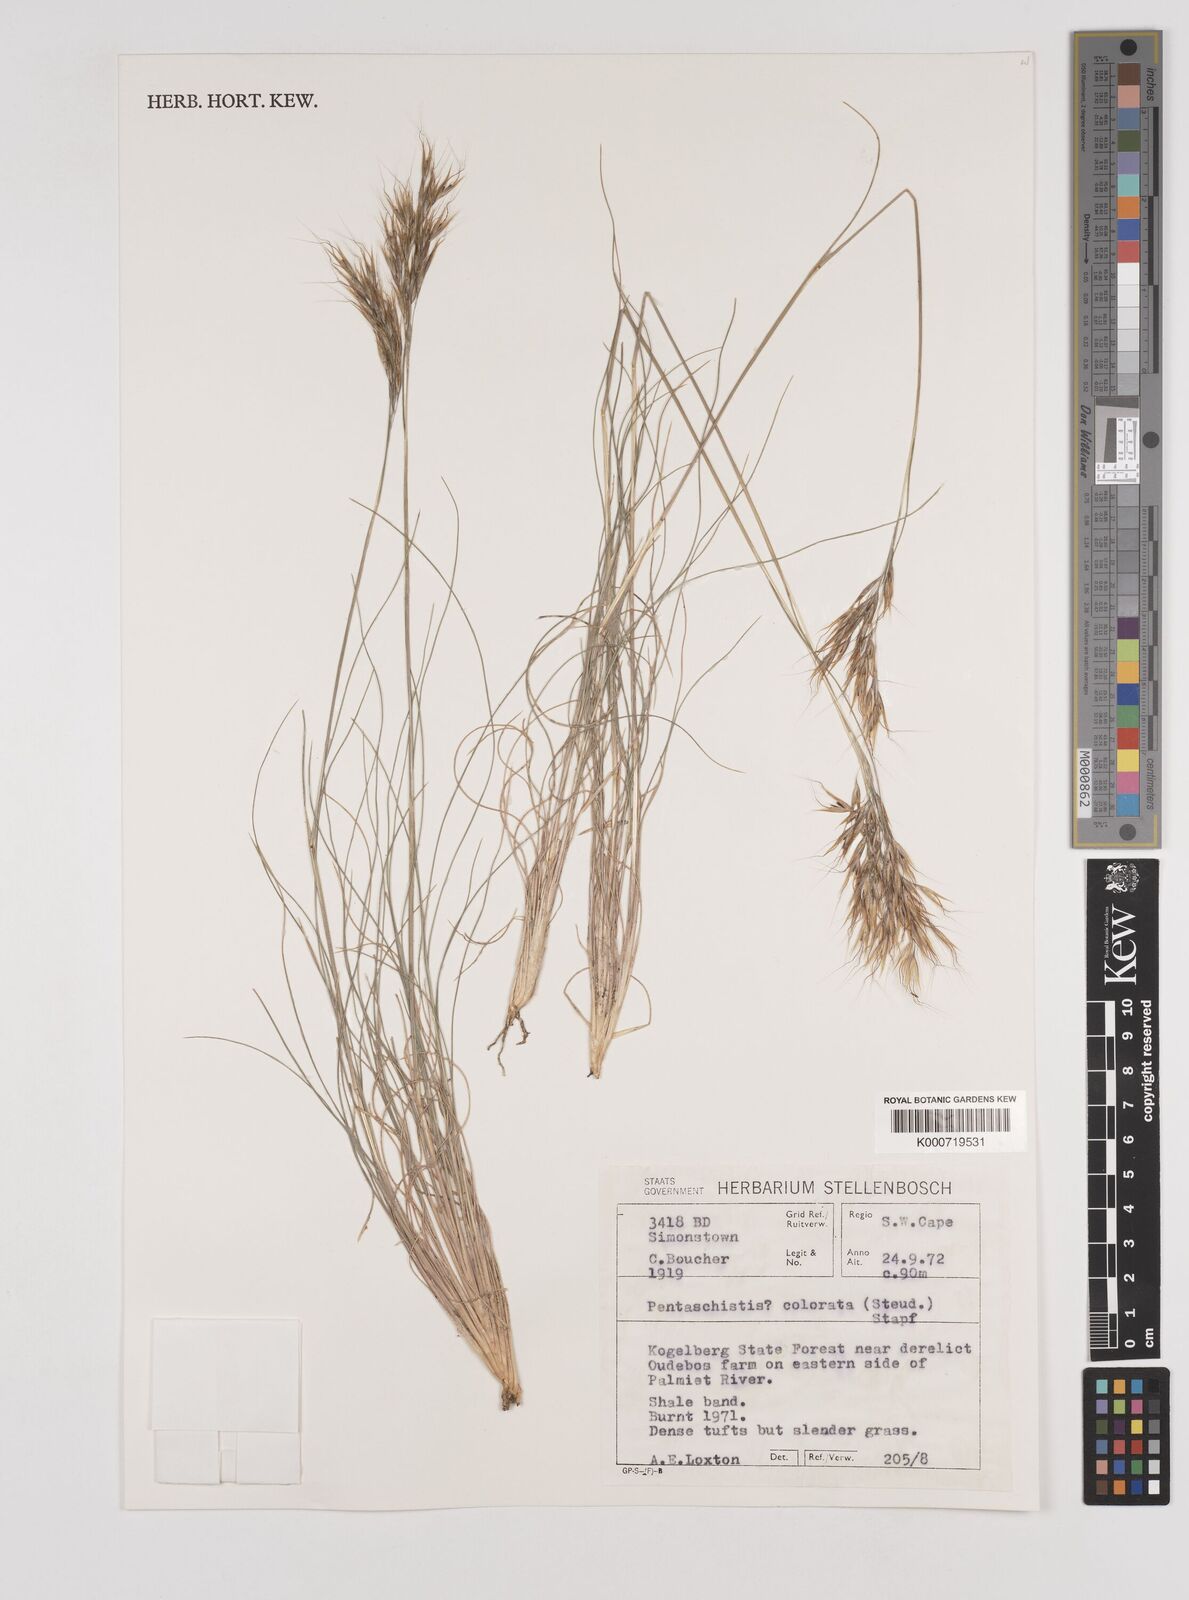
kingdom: Plantae
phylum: Tracheophyta
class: Liliopsida
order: Poales
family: Poaceae
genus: Pentameris
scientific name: Pentameris colorata
